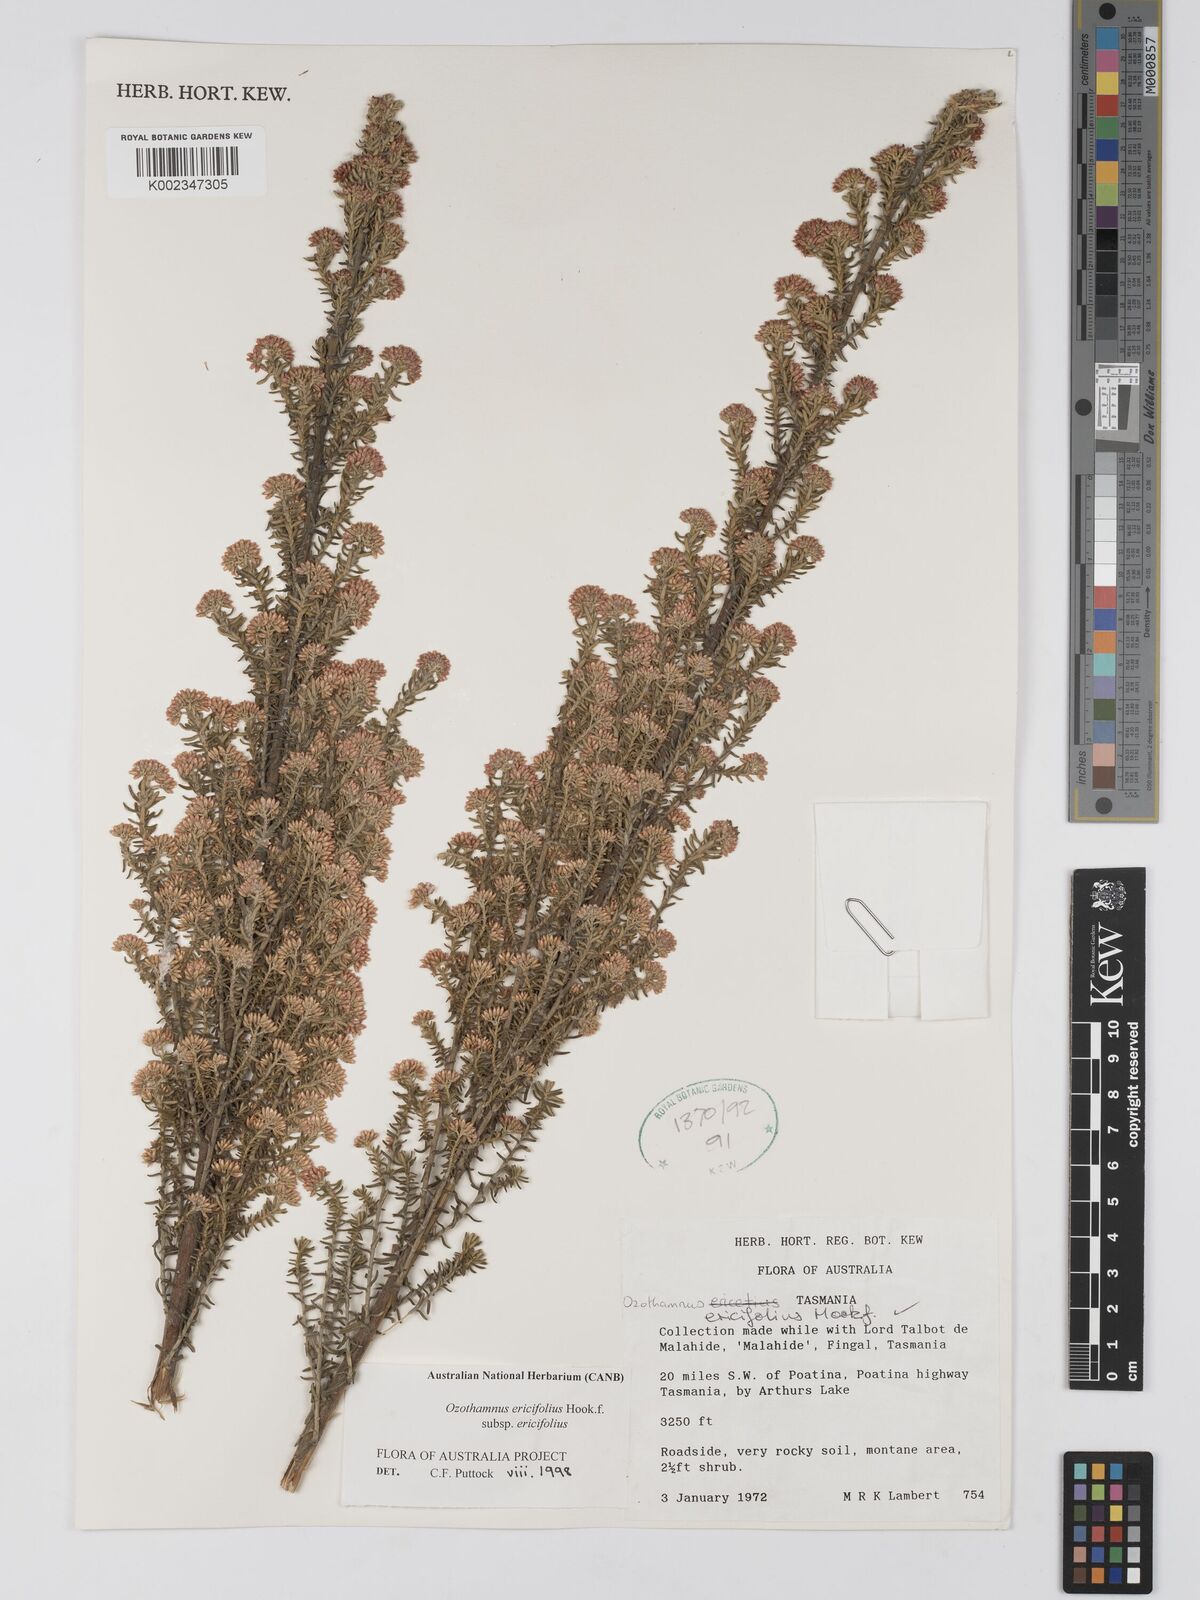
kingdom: Plantae
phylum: Tracheophyta
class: Magnoliopsida
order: Asterales
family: Asteraceae
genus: Ozothamnus
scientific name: Ozothamnus ericifolius
